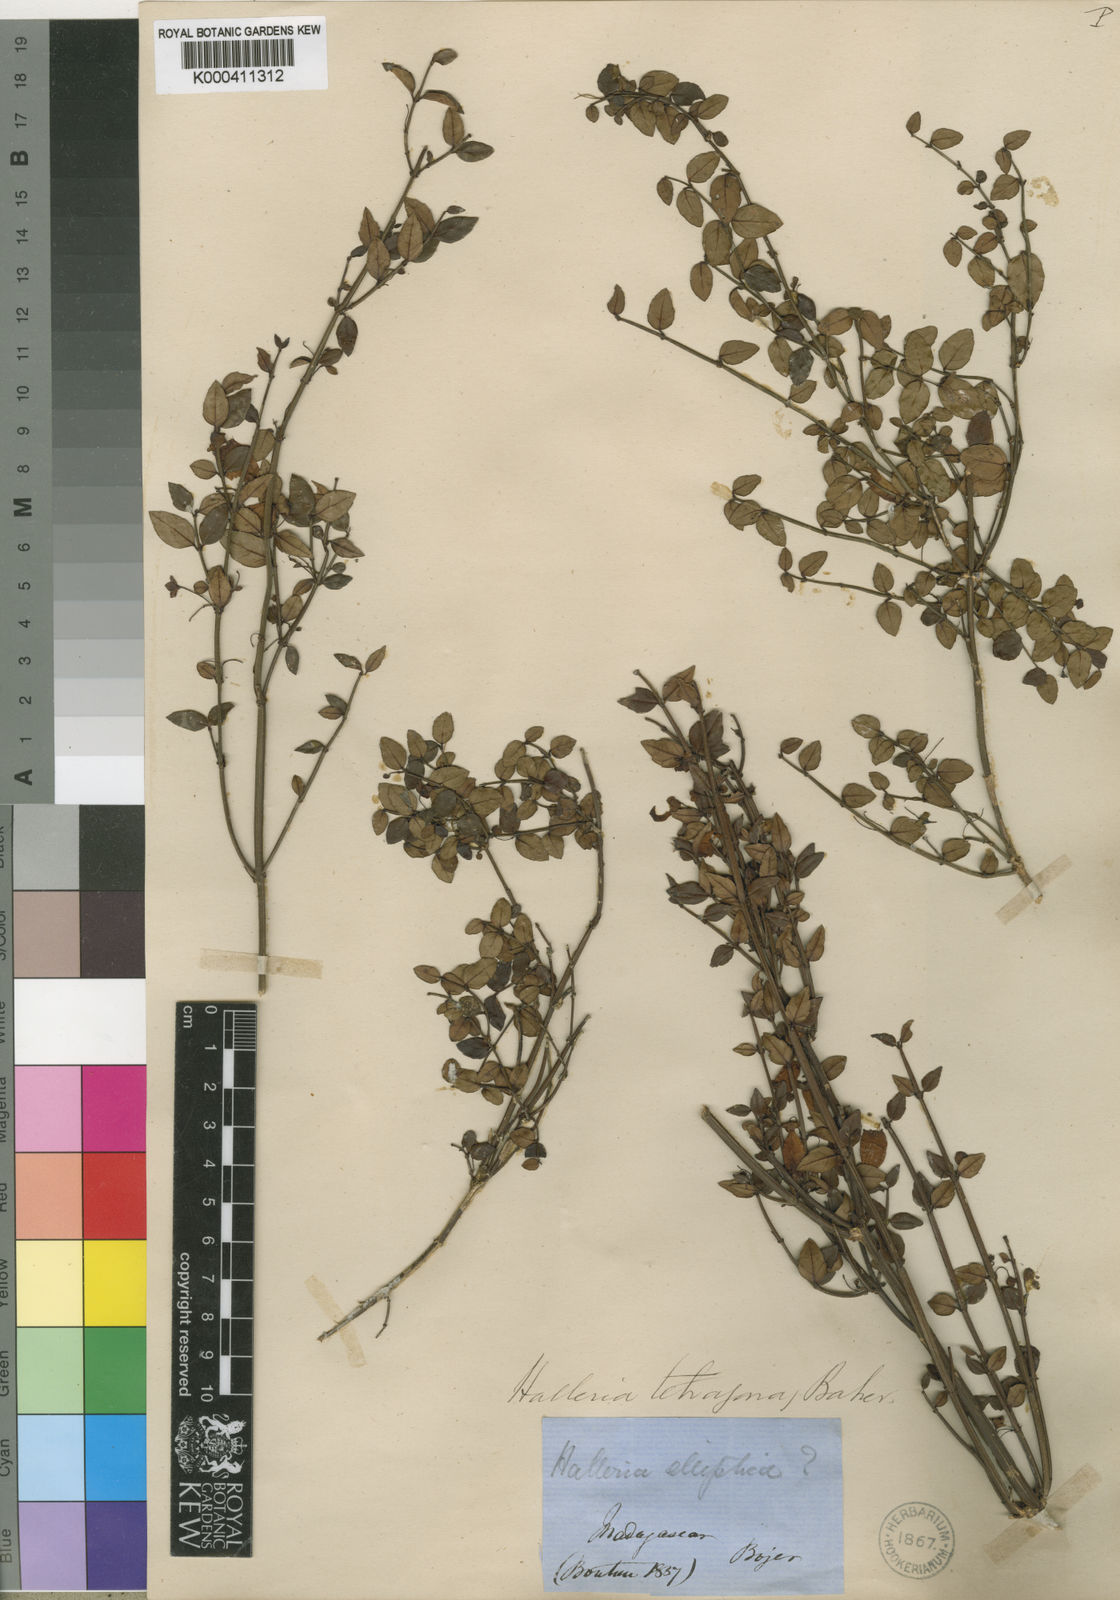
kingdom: Plantae
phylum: Tracheophyta
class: Magnoliopsida
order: Lamiales
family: Stilbaceae
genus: Halleria
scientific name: Halleria ligustrifolia
